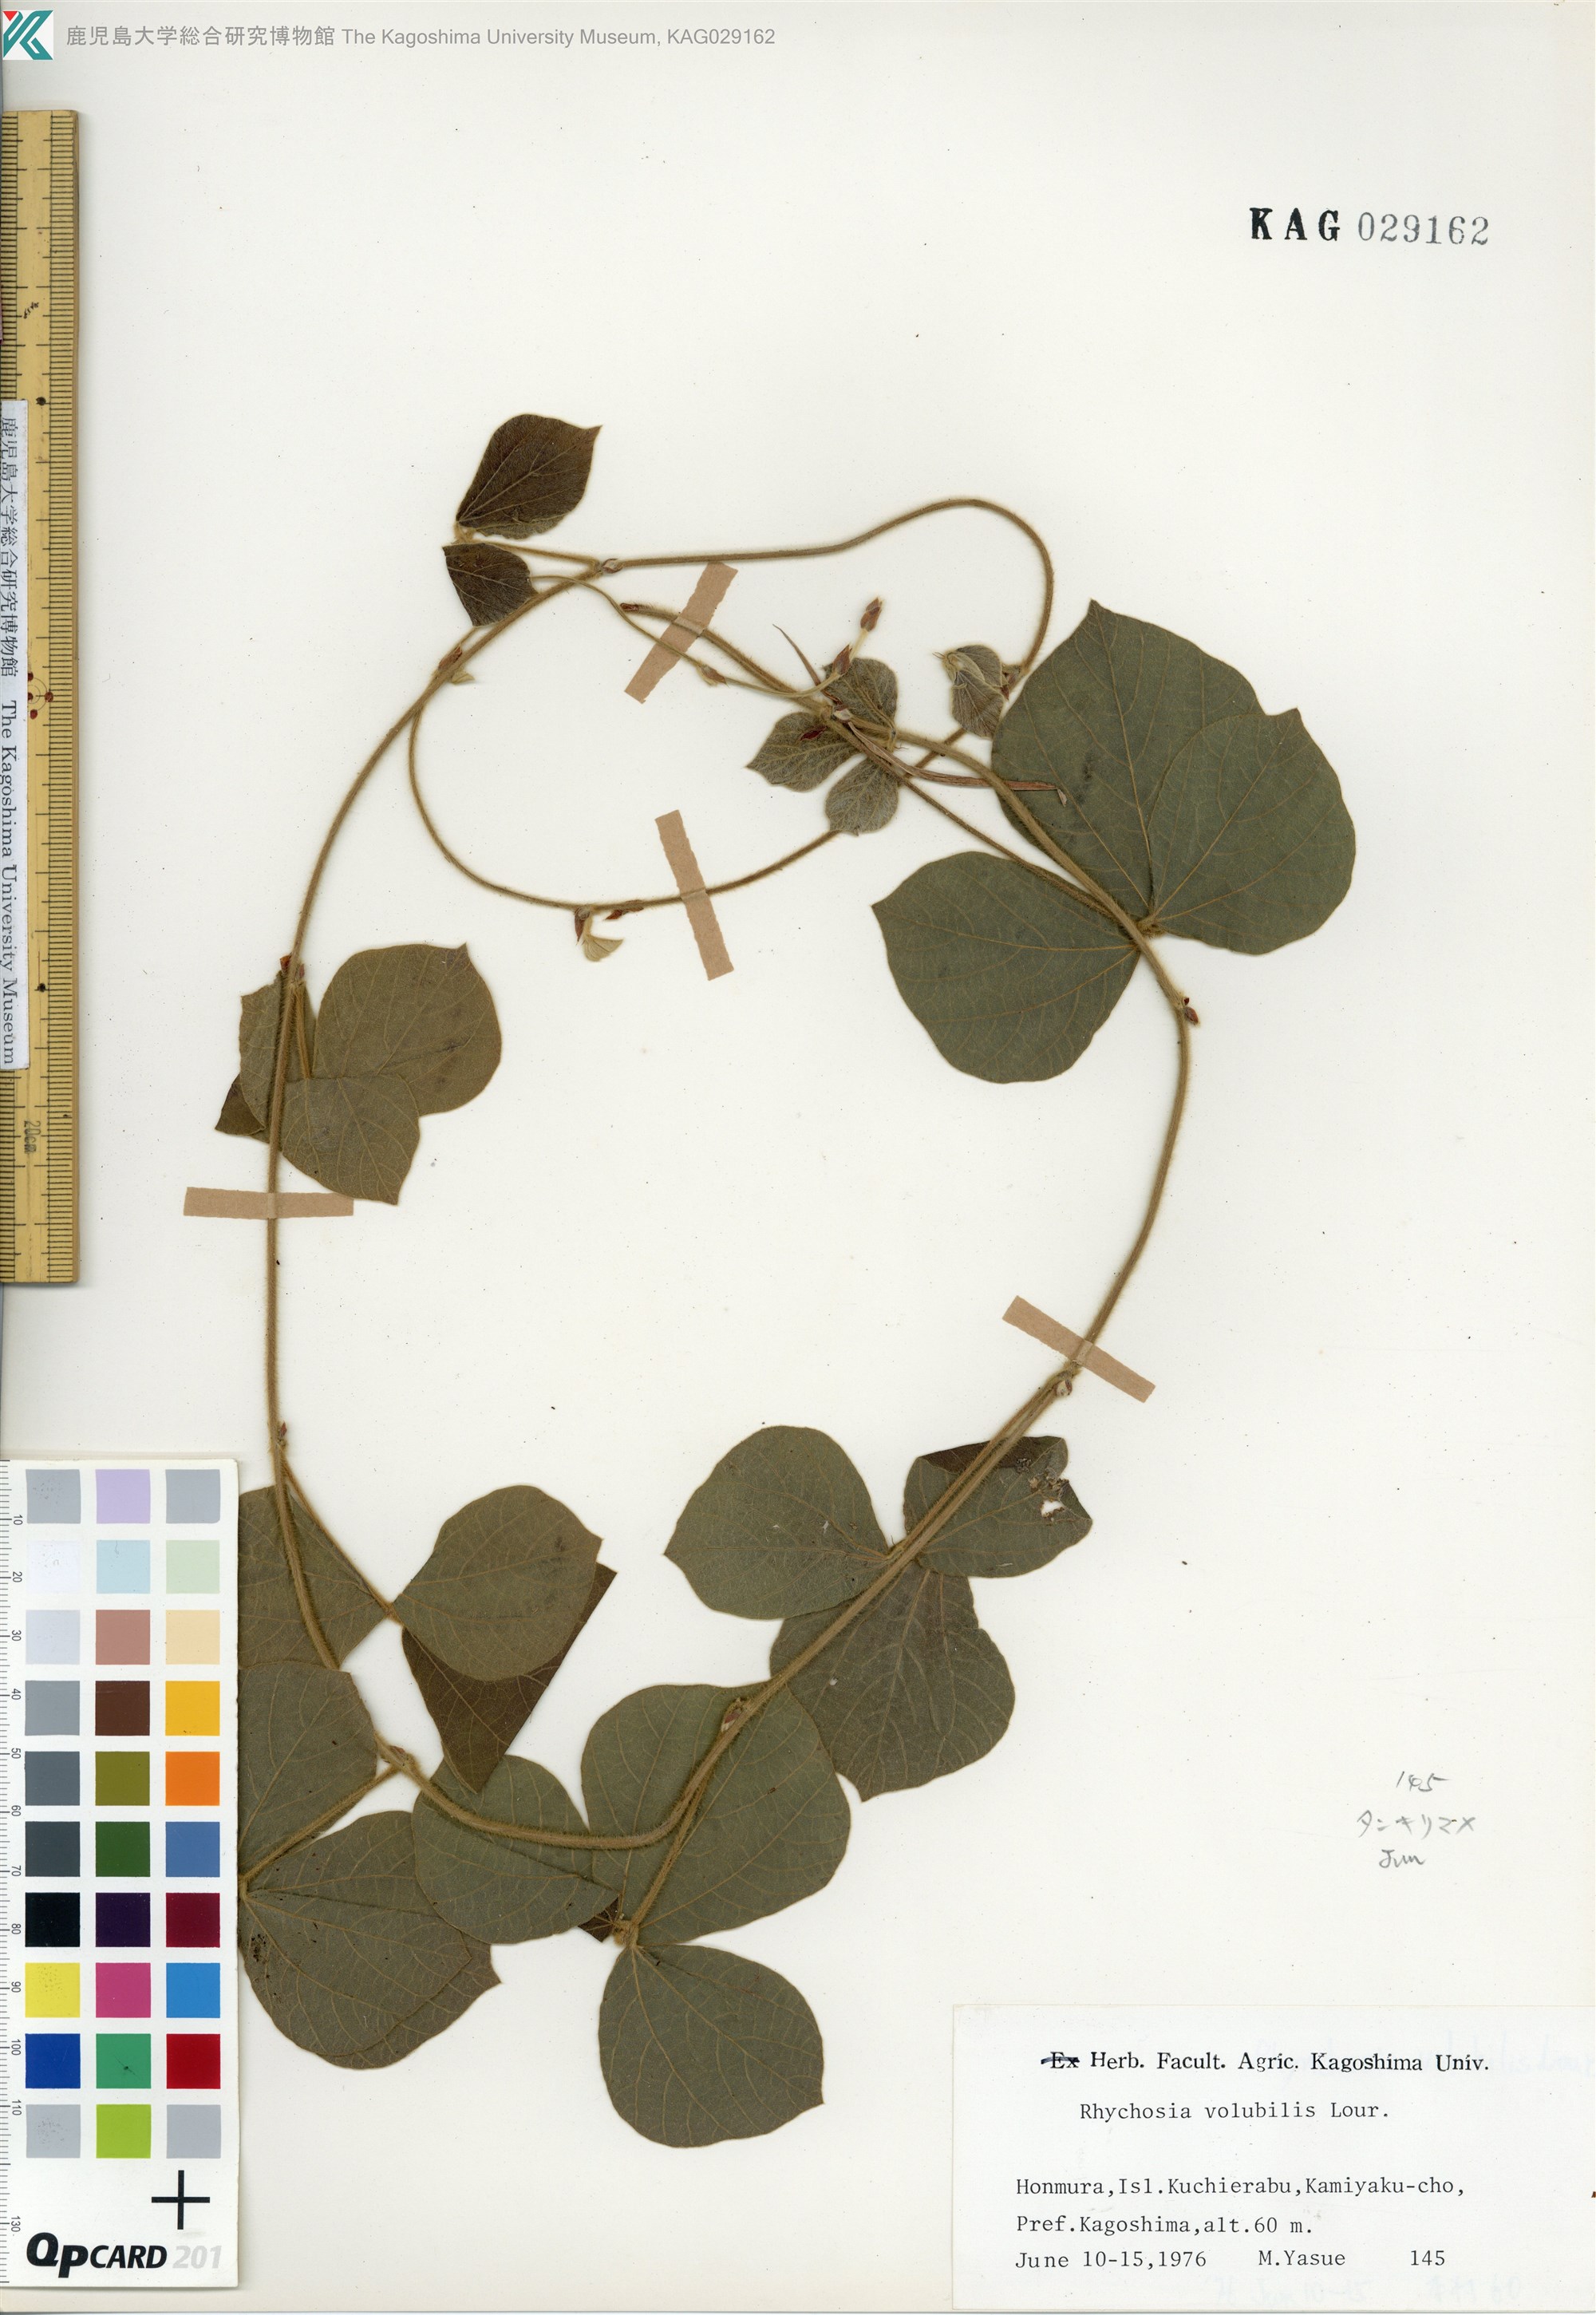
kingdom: Plantae
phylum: Tracheophyta
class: Magnoliopsida
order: Fabales
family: Fabaceae
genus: Rhynchosia
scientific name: Rhynchosia volubilis
